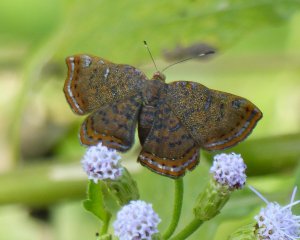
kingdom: Animalia
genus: Caria
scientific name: Caria ino
